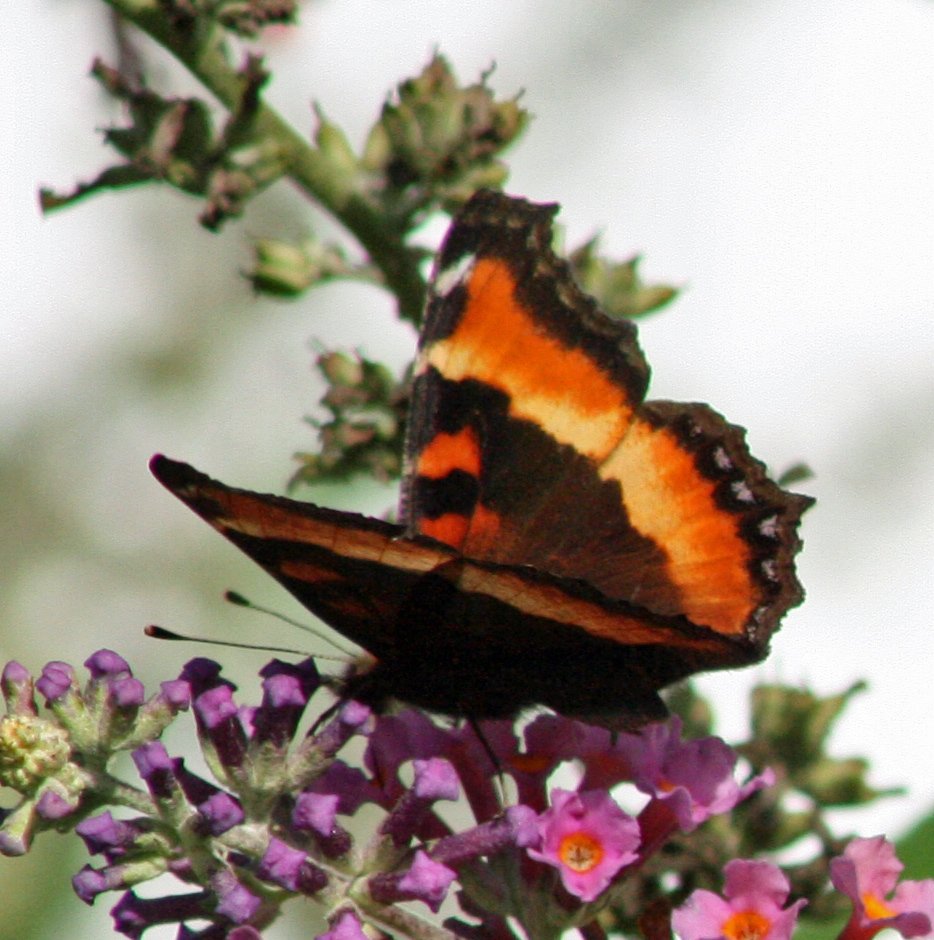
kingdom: Animalia
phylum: Arthropoda
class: Insecta
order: Lepidoptera
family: Nymphalidae
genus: Aglais
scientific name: Aglais milberti
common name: Milbert's Tortoiseshell
